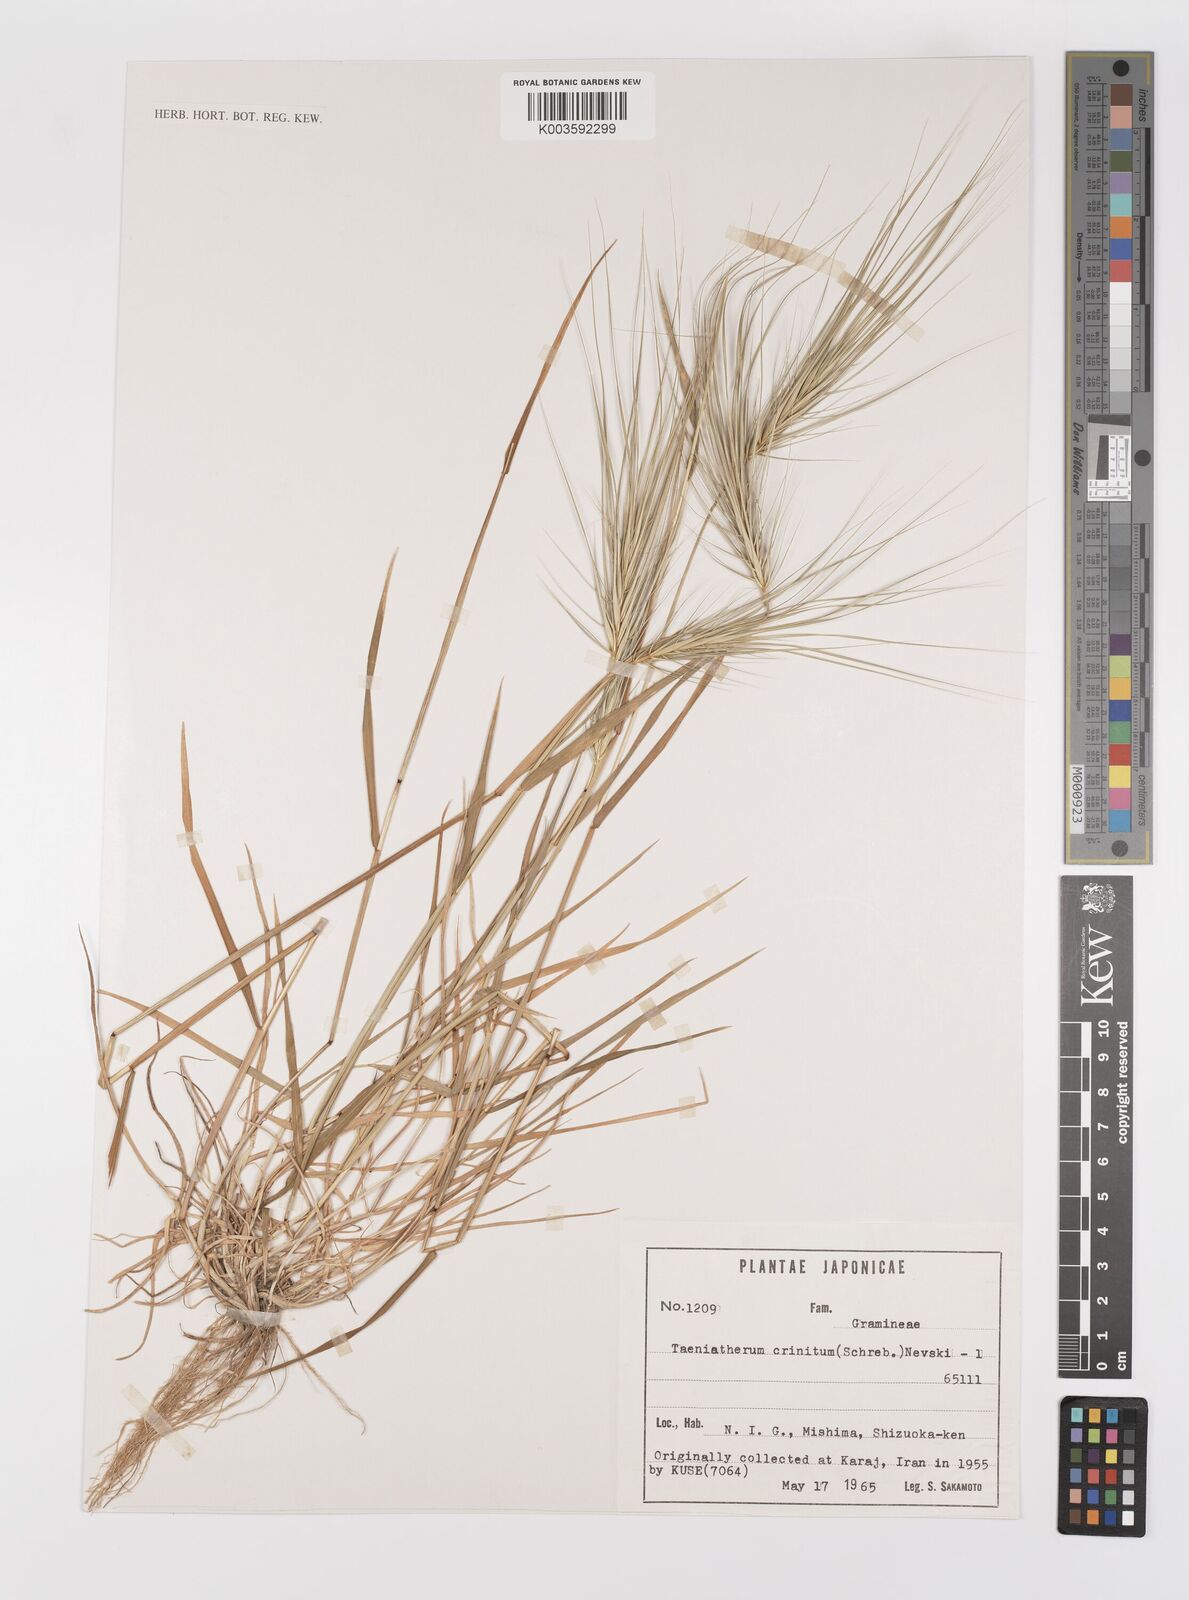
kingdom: Plantae
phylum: Tracheophyta
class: Liliopsida
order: Poales
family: Poaceae
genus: Taeniatherum
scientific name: Taeniatherum caput-medusae
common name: Medusahead
